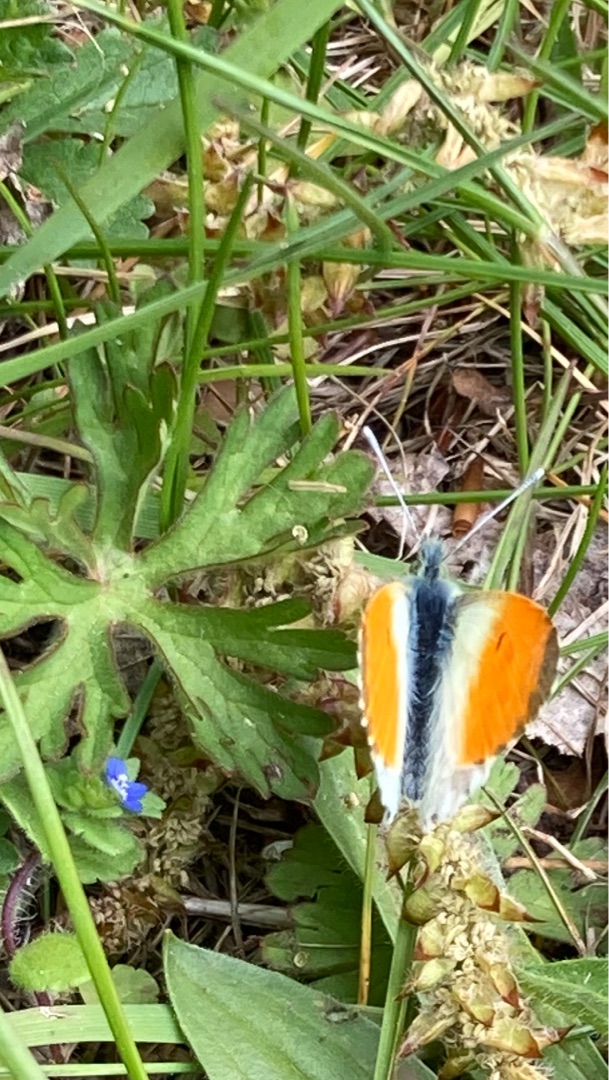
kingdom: Animalia
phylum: Arthropoda
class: Insecta
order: Lepidoptera
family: Pieridae
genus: Anthocharis
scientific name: Anthocharis cardamines
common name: Aurora
